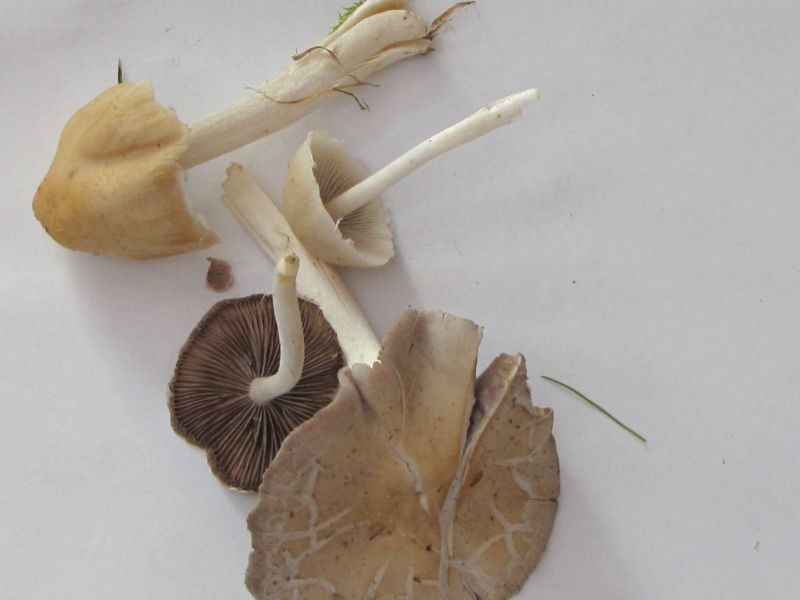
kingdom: Fungi
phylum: Basidiomycota
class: Agaricomycetes
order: Agaricales
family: Psathyrellaceae
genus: Candolleomyces
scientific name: Candolleomyces candolleanus
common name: Candolles mørkhat
